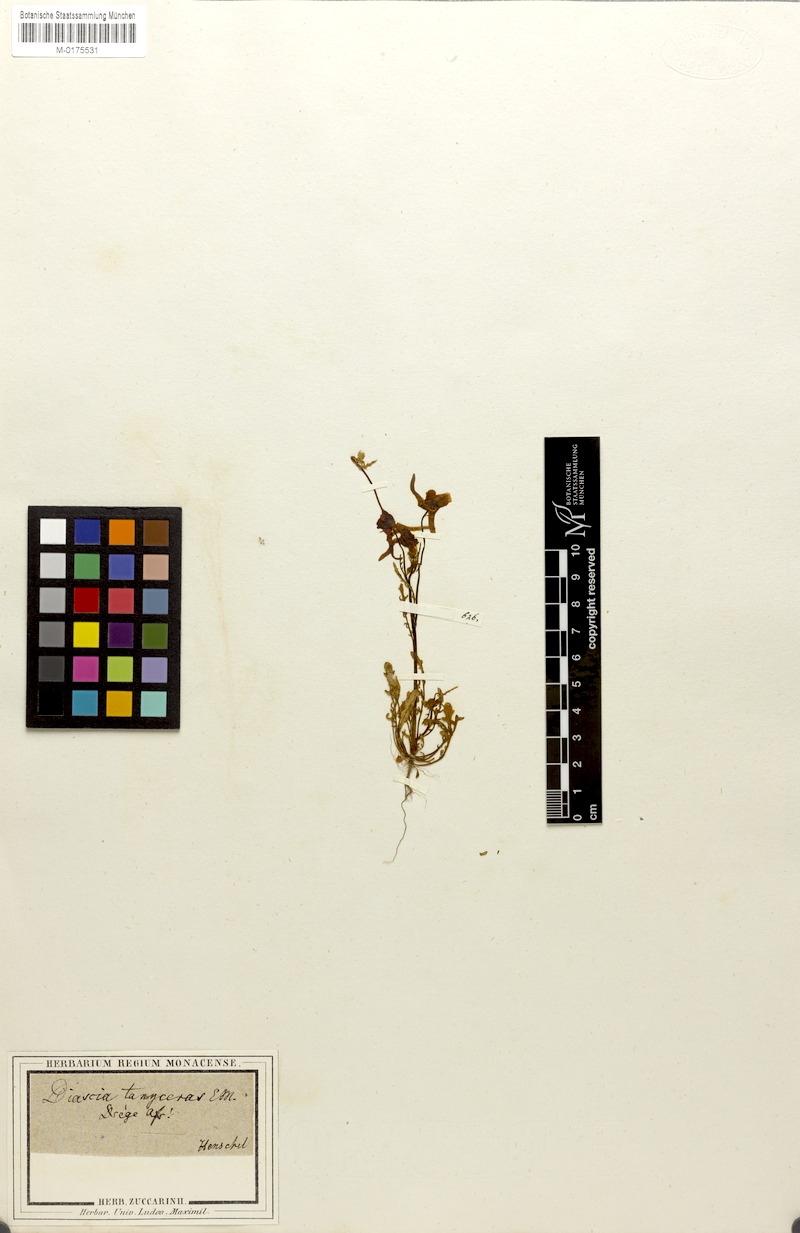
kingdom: Plantae
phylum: Tracheophyta
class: Magnoliopsida
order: Lamiales
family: Scrophulariaceae
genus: Diascia
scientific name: Diascia tanyceras
